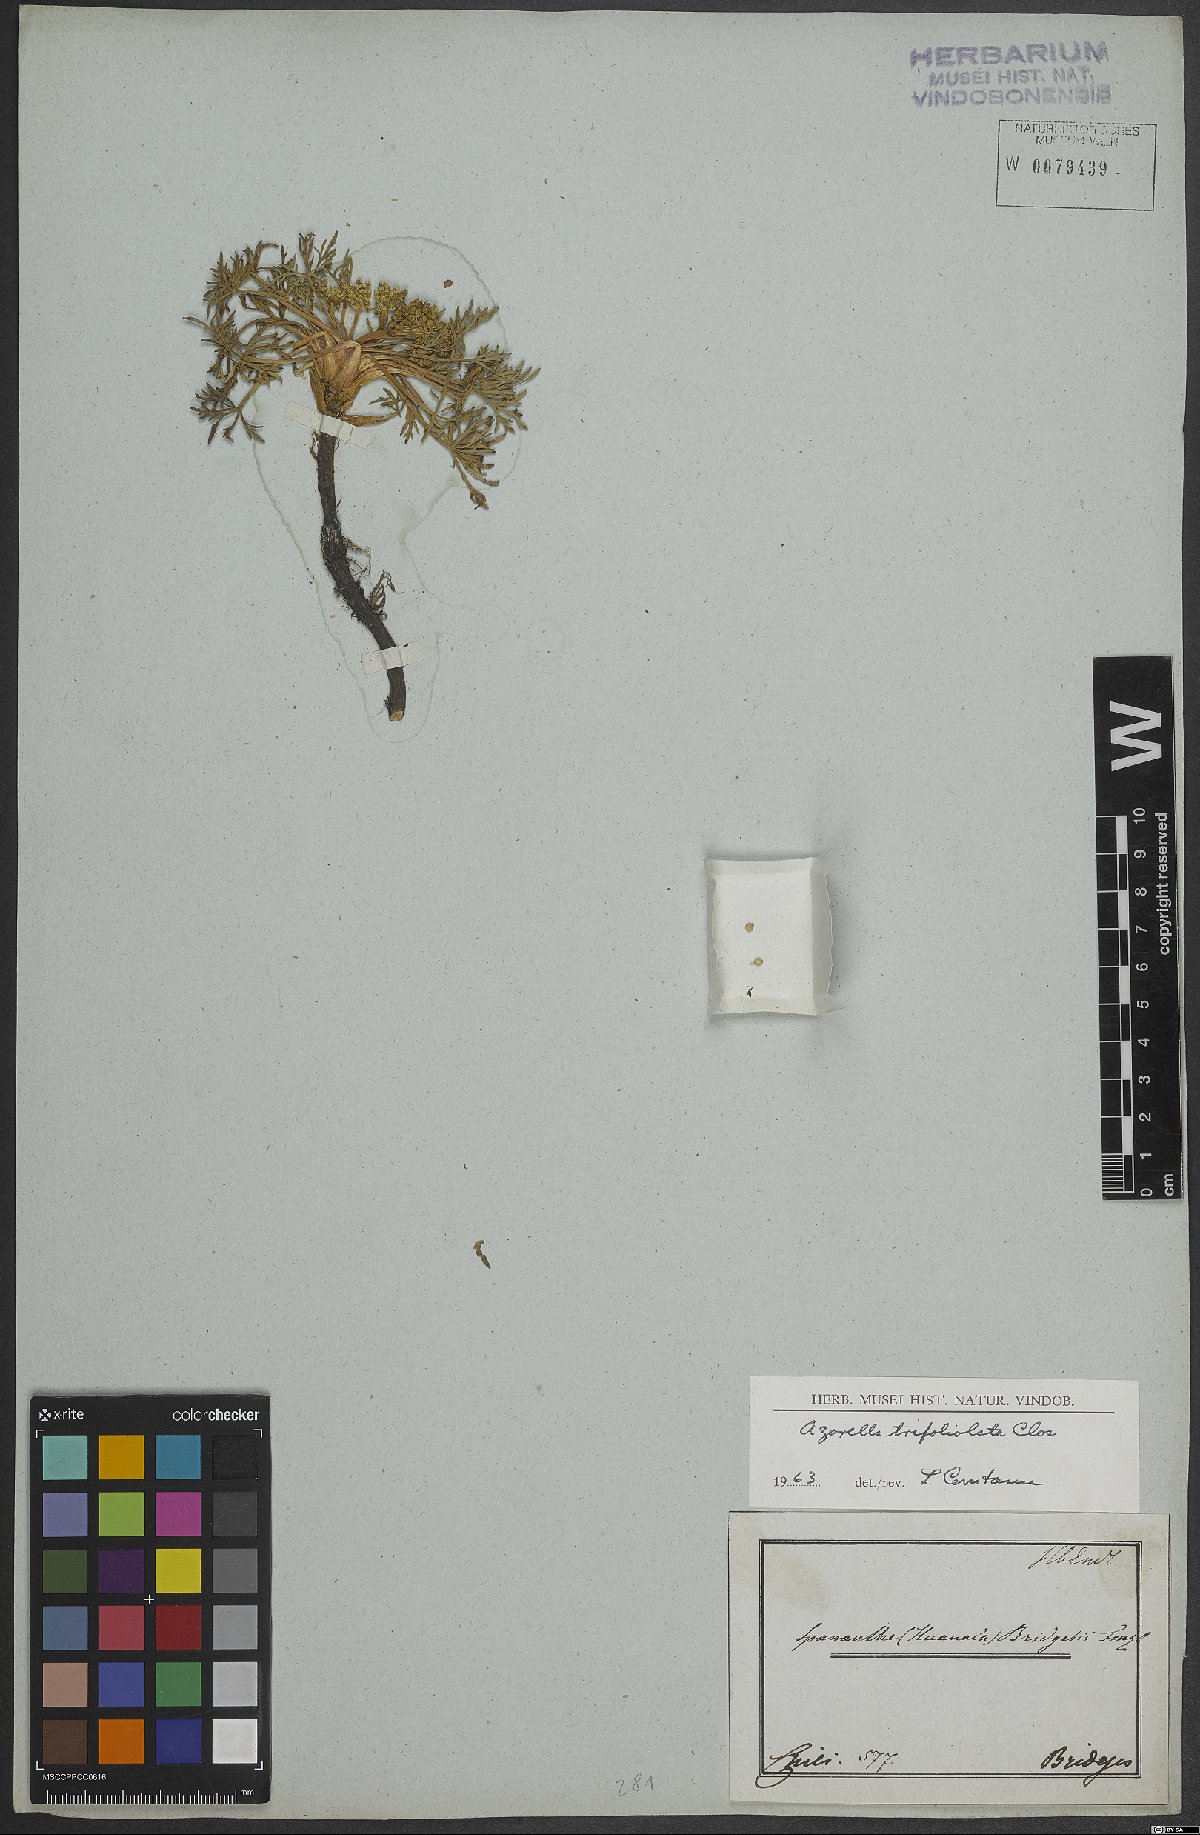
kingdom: Plantae
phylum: Tracheophyta
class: Magnoliopsida
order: Apiales
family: Apiaceae
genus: Azorella
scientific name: Azorella trifoliolata
